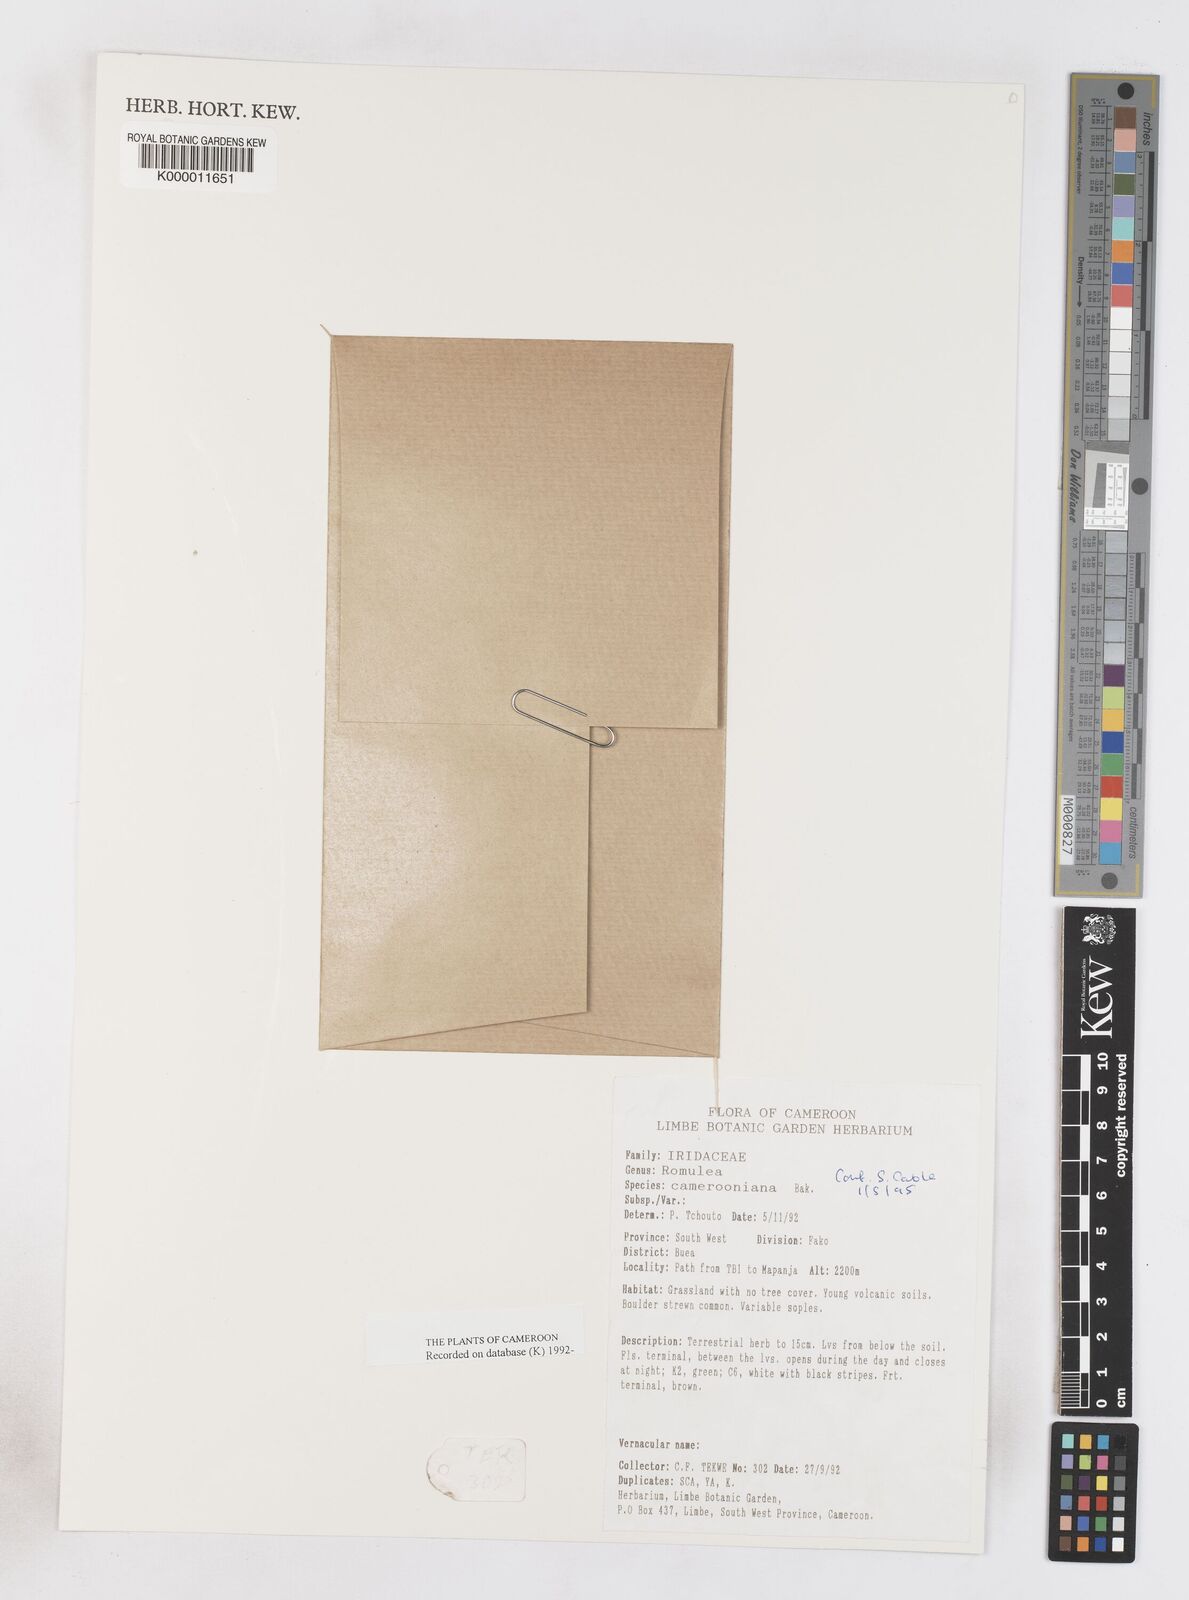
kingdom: Plantae
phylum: Tracheophyta
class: Liliopsida
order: Asparagales
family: Iridaceae
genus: Romulea
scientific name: Romulea camerooniana
